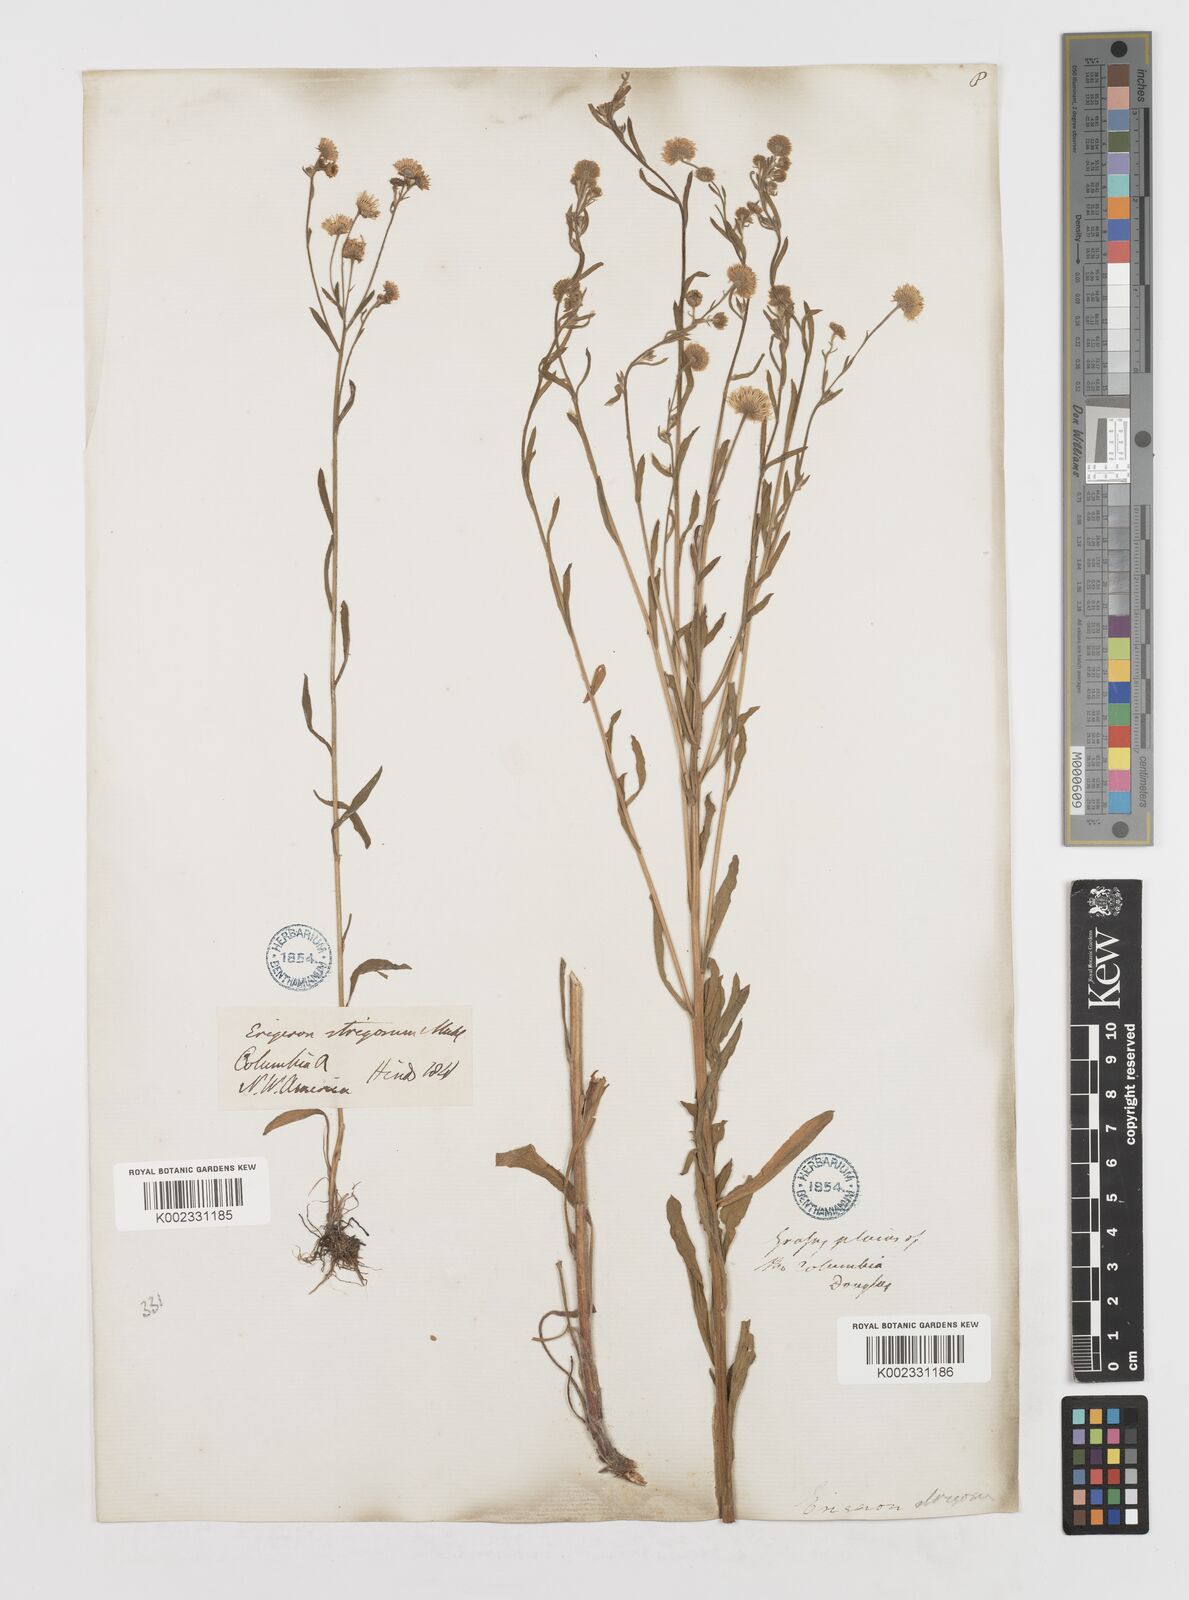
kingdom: Plantae
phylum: Tracheophyta
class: Magnoliopsida
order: Asterales
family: Asteraceae
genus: Erigeron
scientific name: Erigeron
